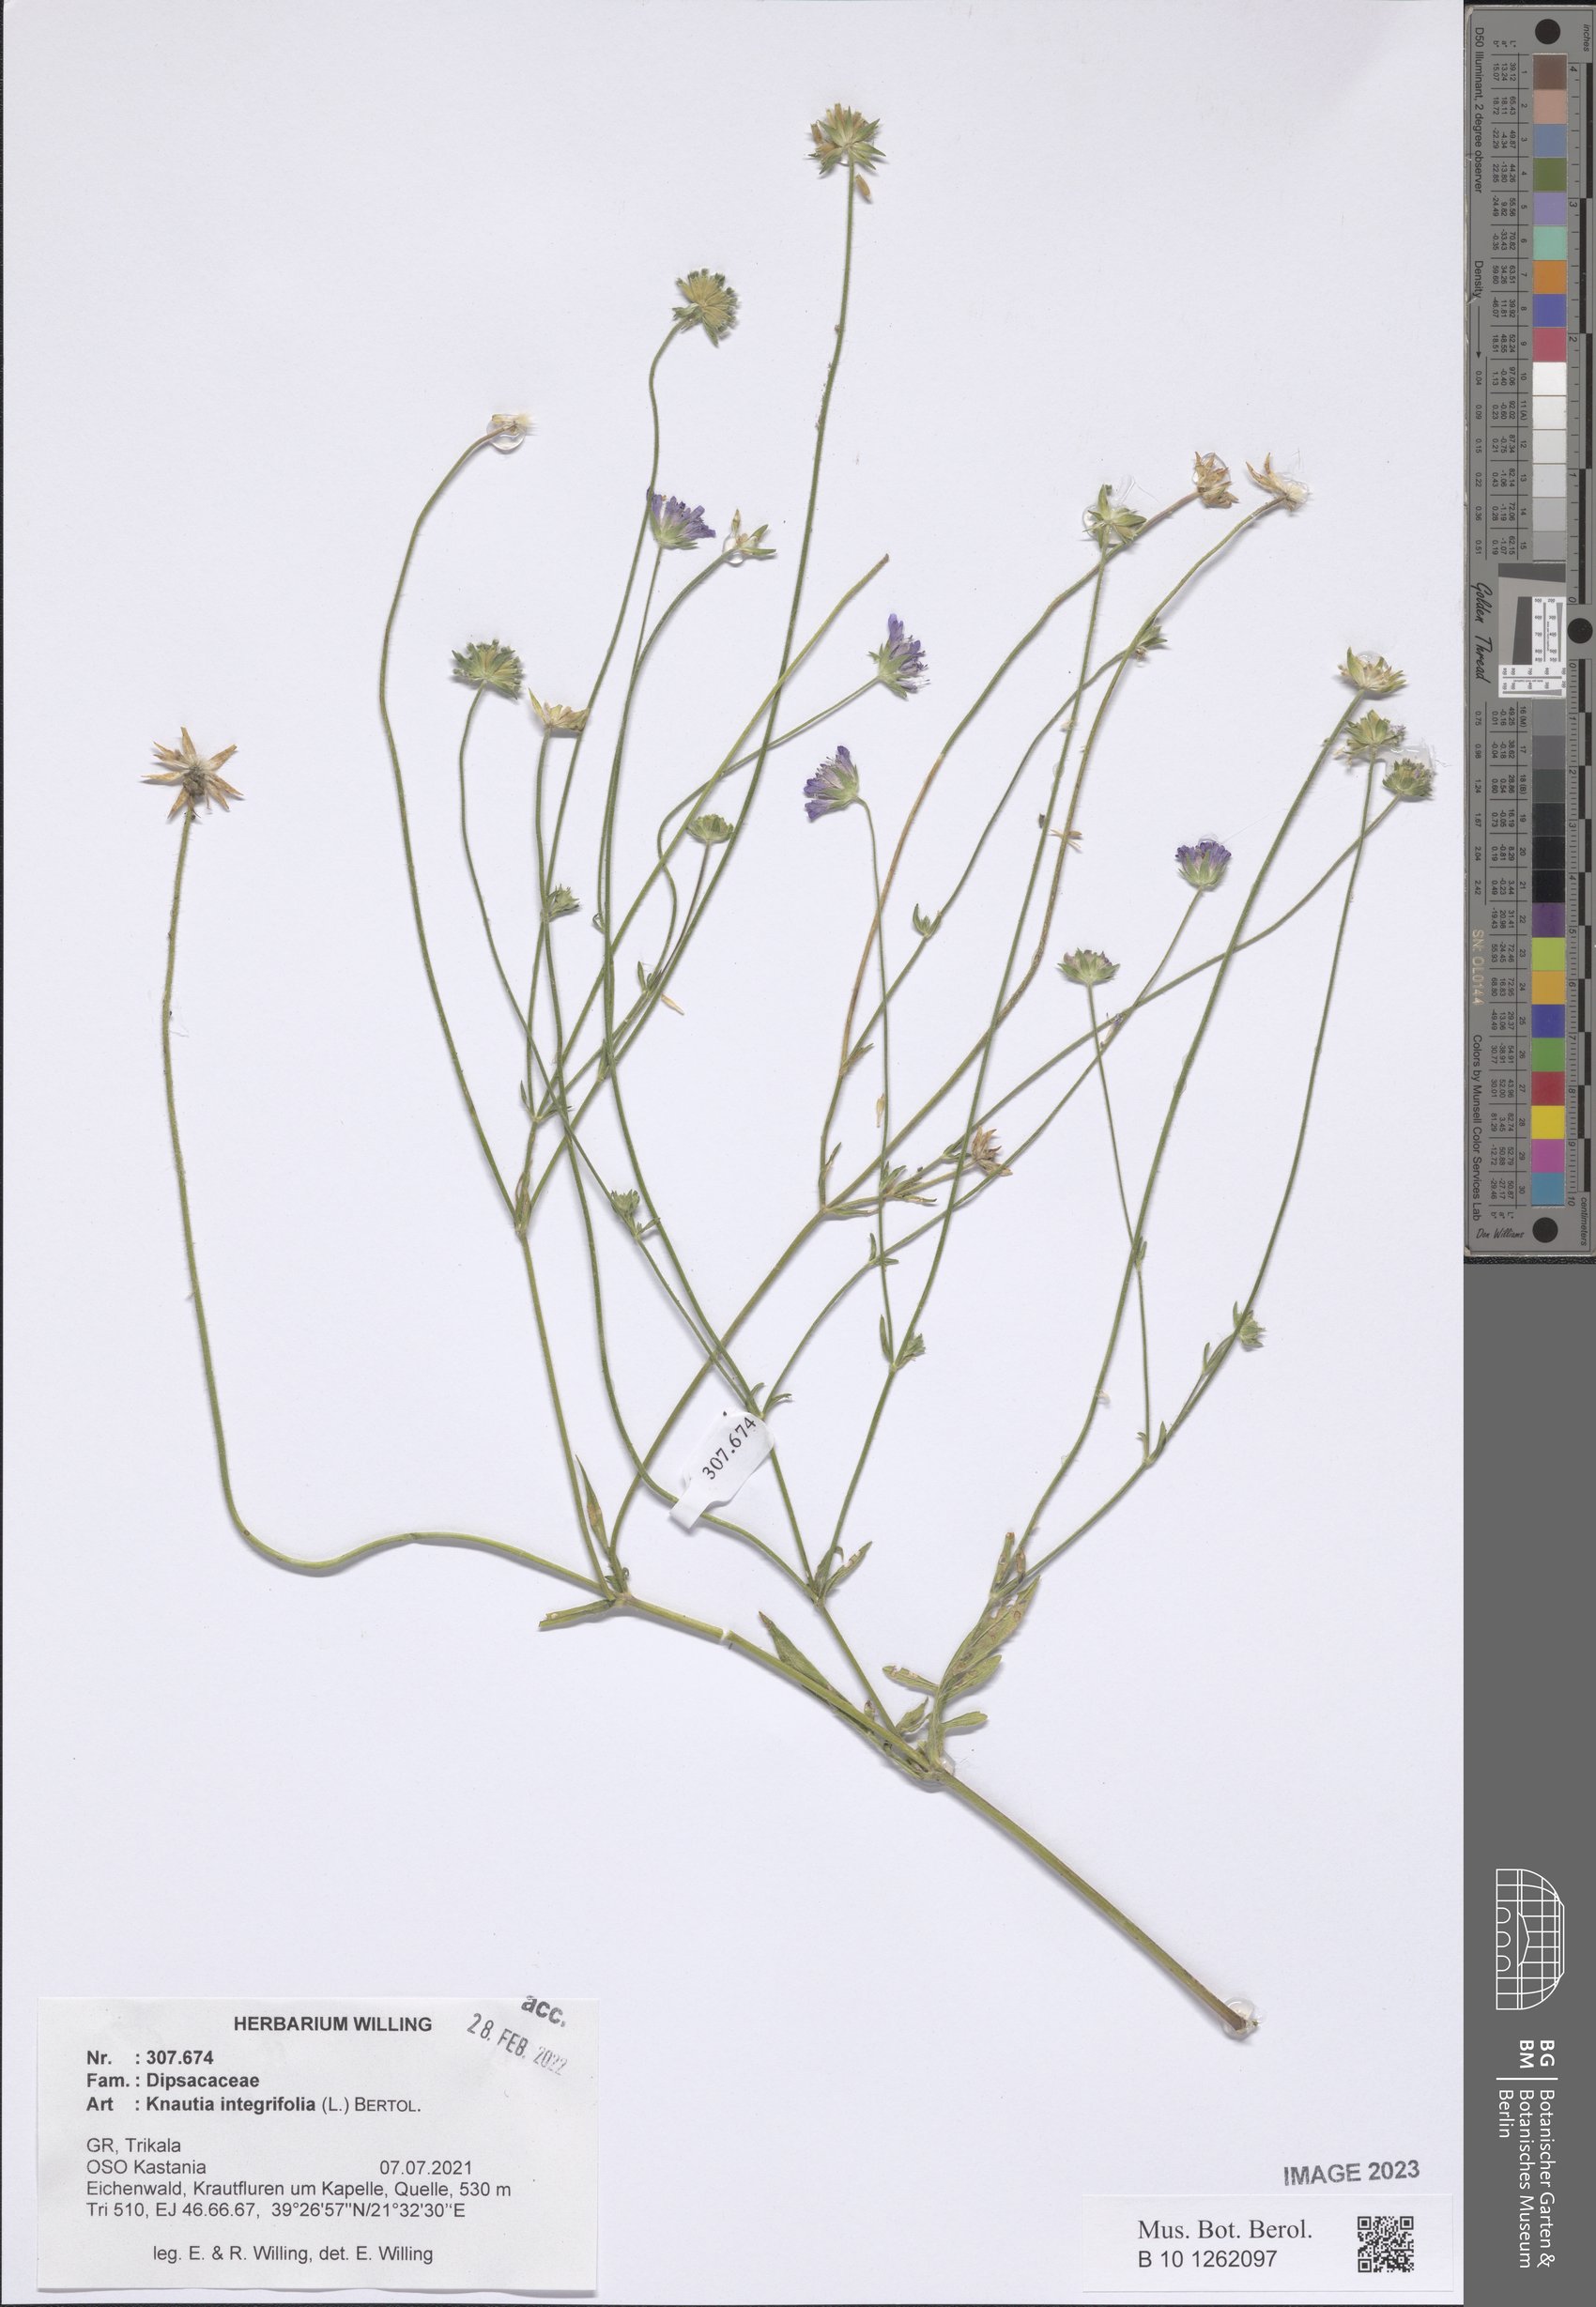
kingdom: Plantae
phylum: Tracheophyta
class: Magnoliopsida
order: Dipsacales
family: Caprifoliaceae
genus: Knautia
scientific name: Knautia integrifolia
